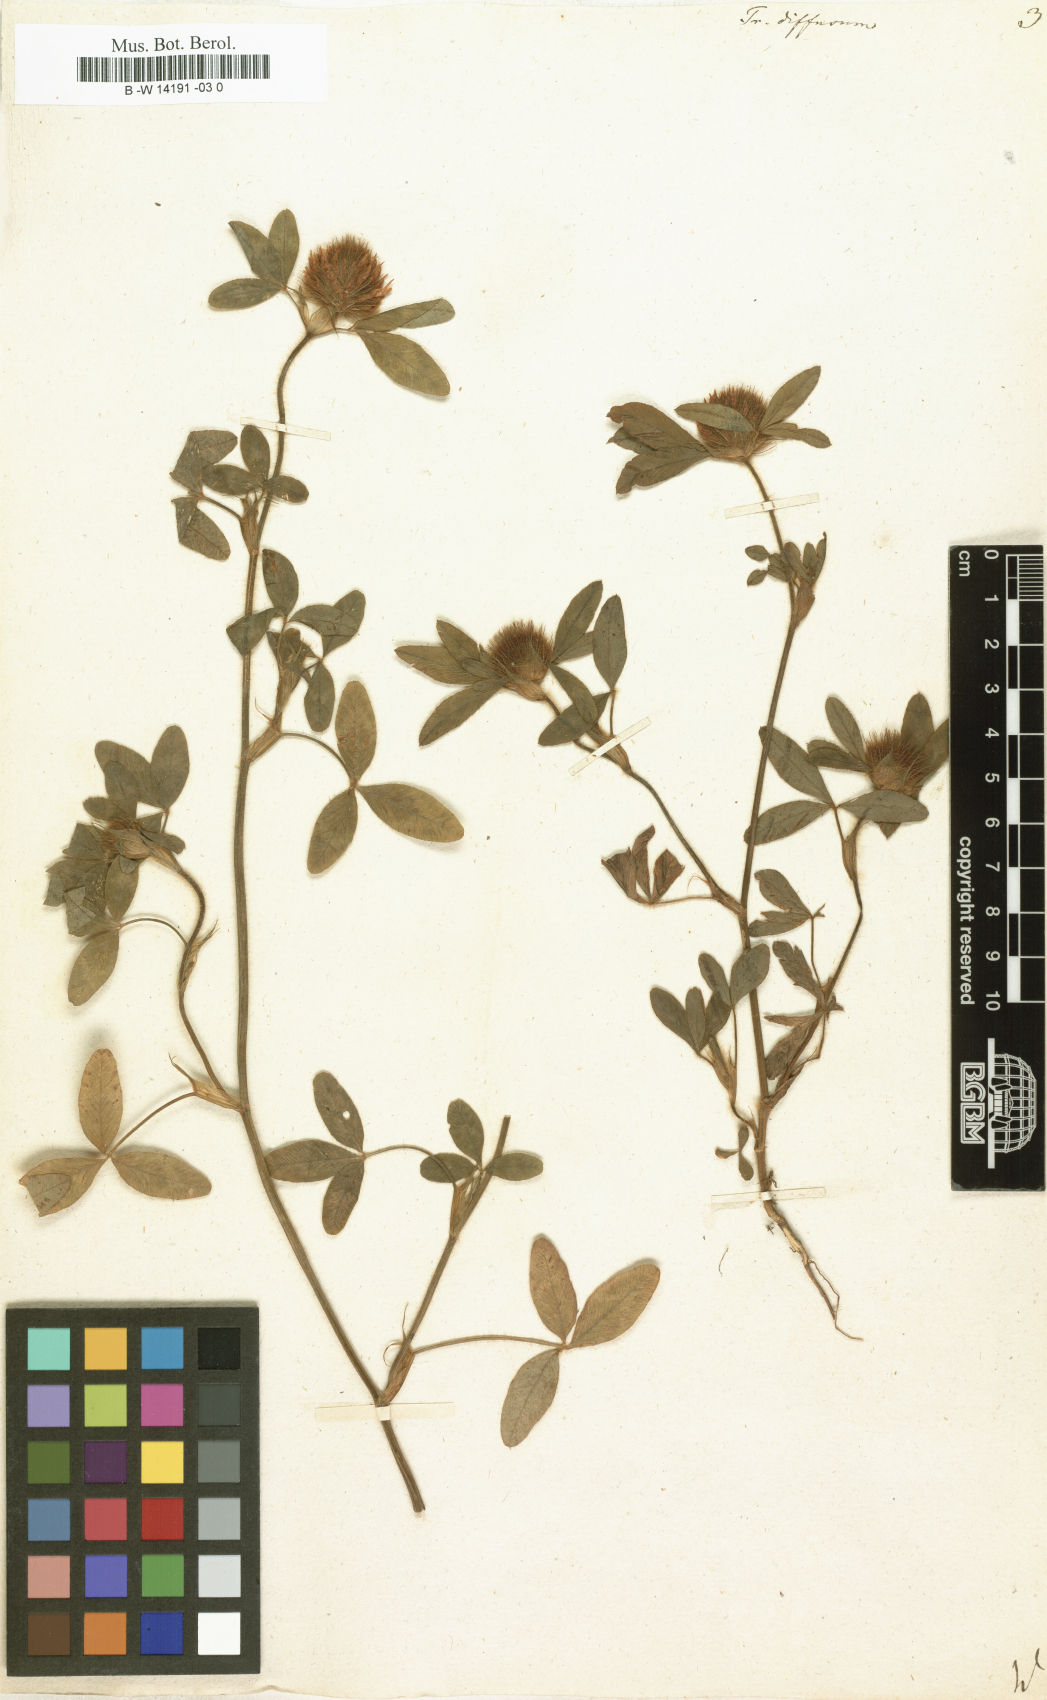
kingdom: Plantae
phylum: Tracheophyta
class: Magnoliopsida
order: Fabales
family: Fabaceae
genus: Trifolium
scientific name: Trifolium diffusum
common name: Diffuse clover
